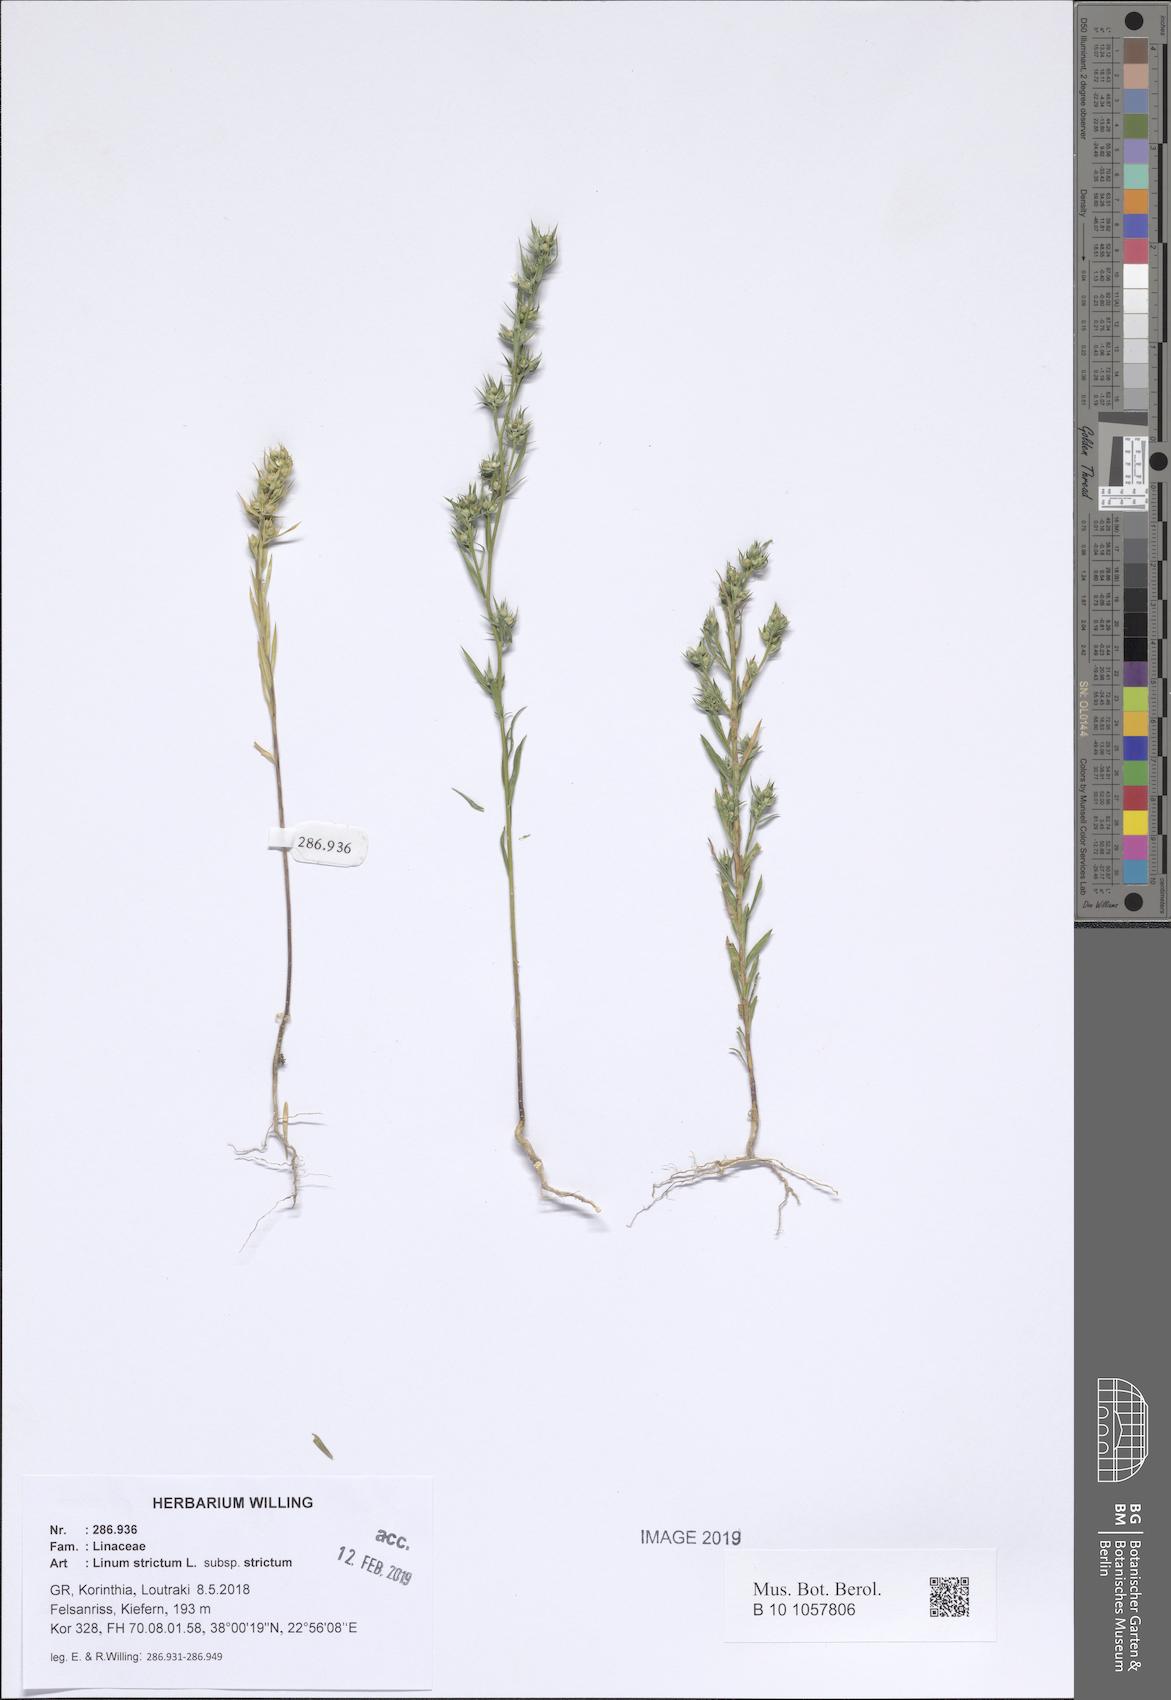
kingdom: Plantae
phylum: Tracheophyta
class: Magnoliopsida
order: Malpighiales
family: Linaceae
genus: Linum
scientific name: Linum strictum
